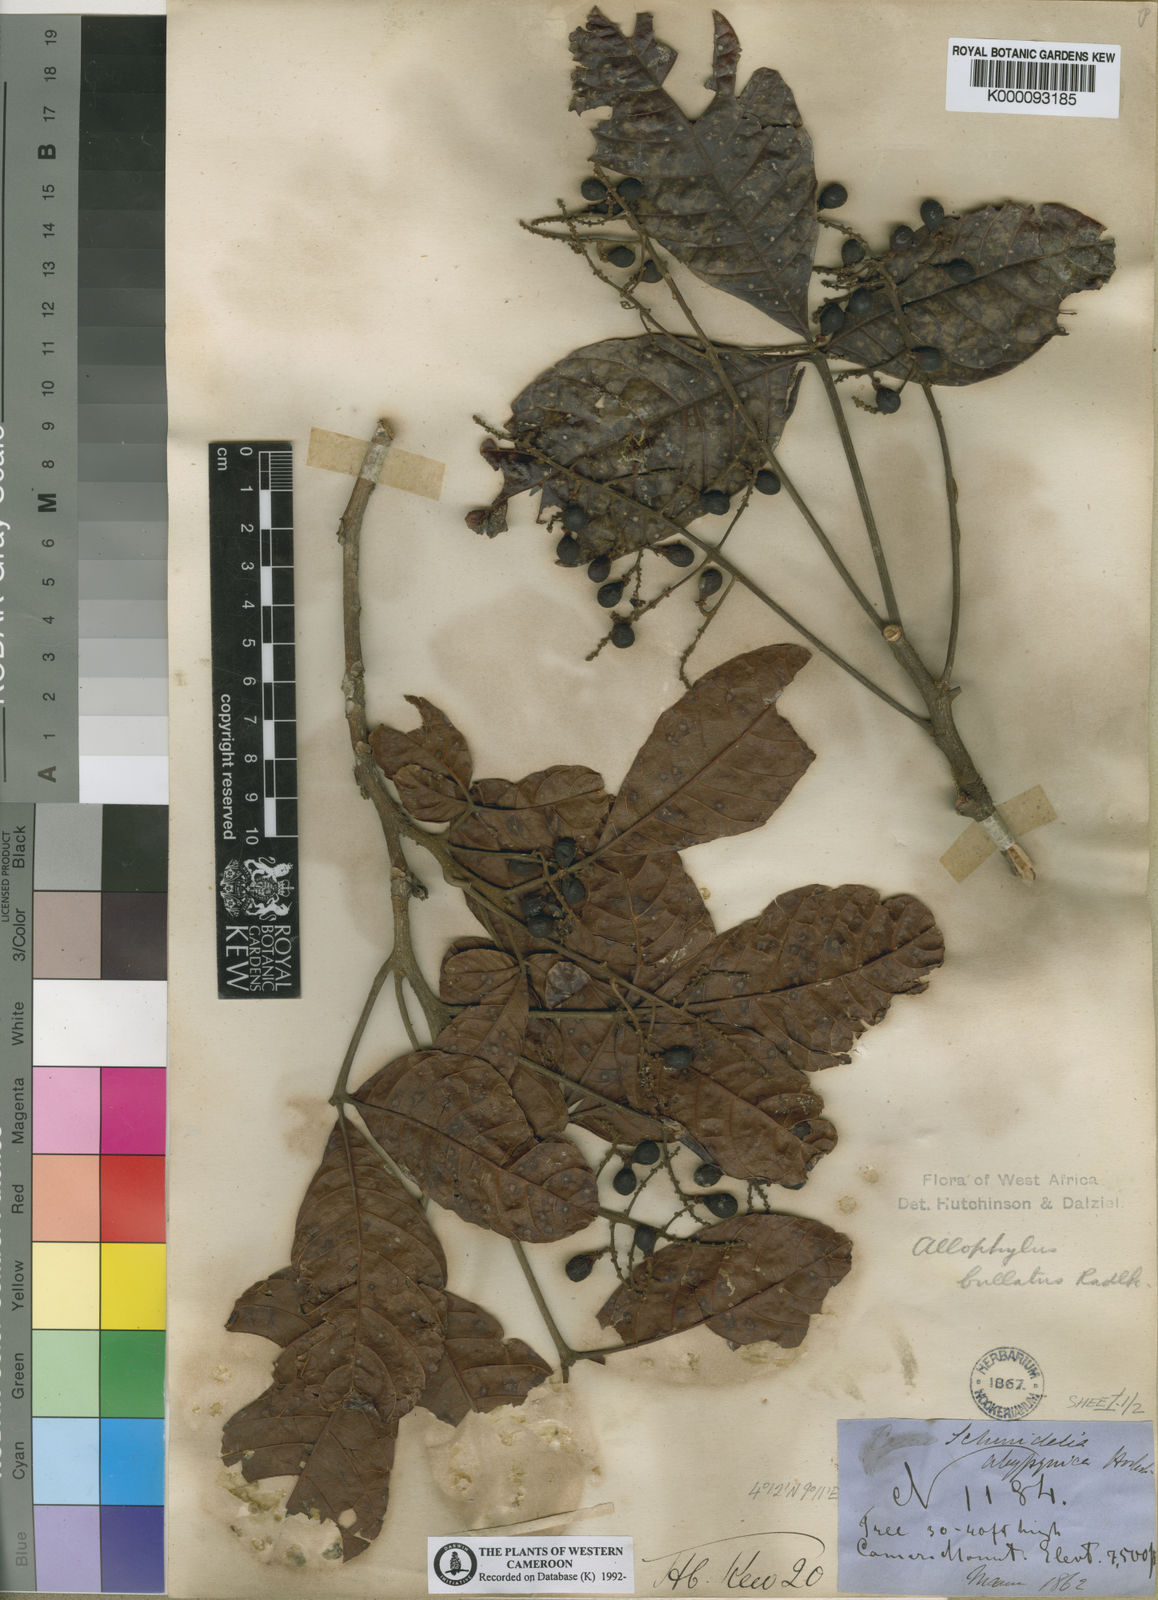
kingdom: Plantae
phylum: Tracheophyta
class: Magnoliopsida
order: Sapindales
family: Sapindaceae
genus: Allophylus
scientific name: Allophylus bullatus
